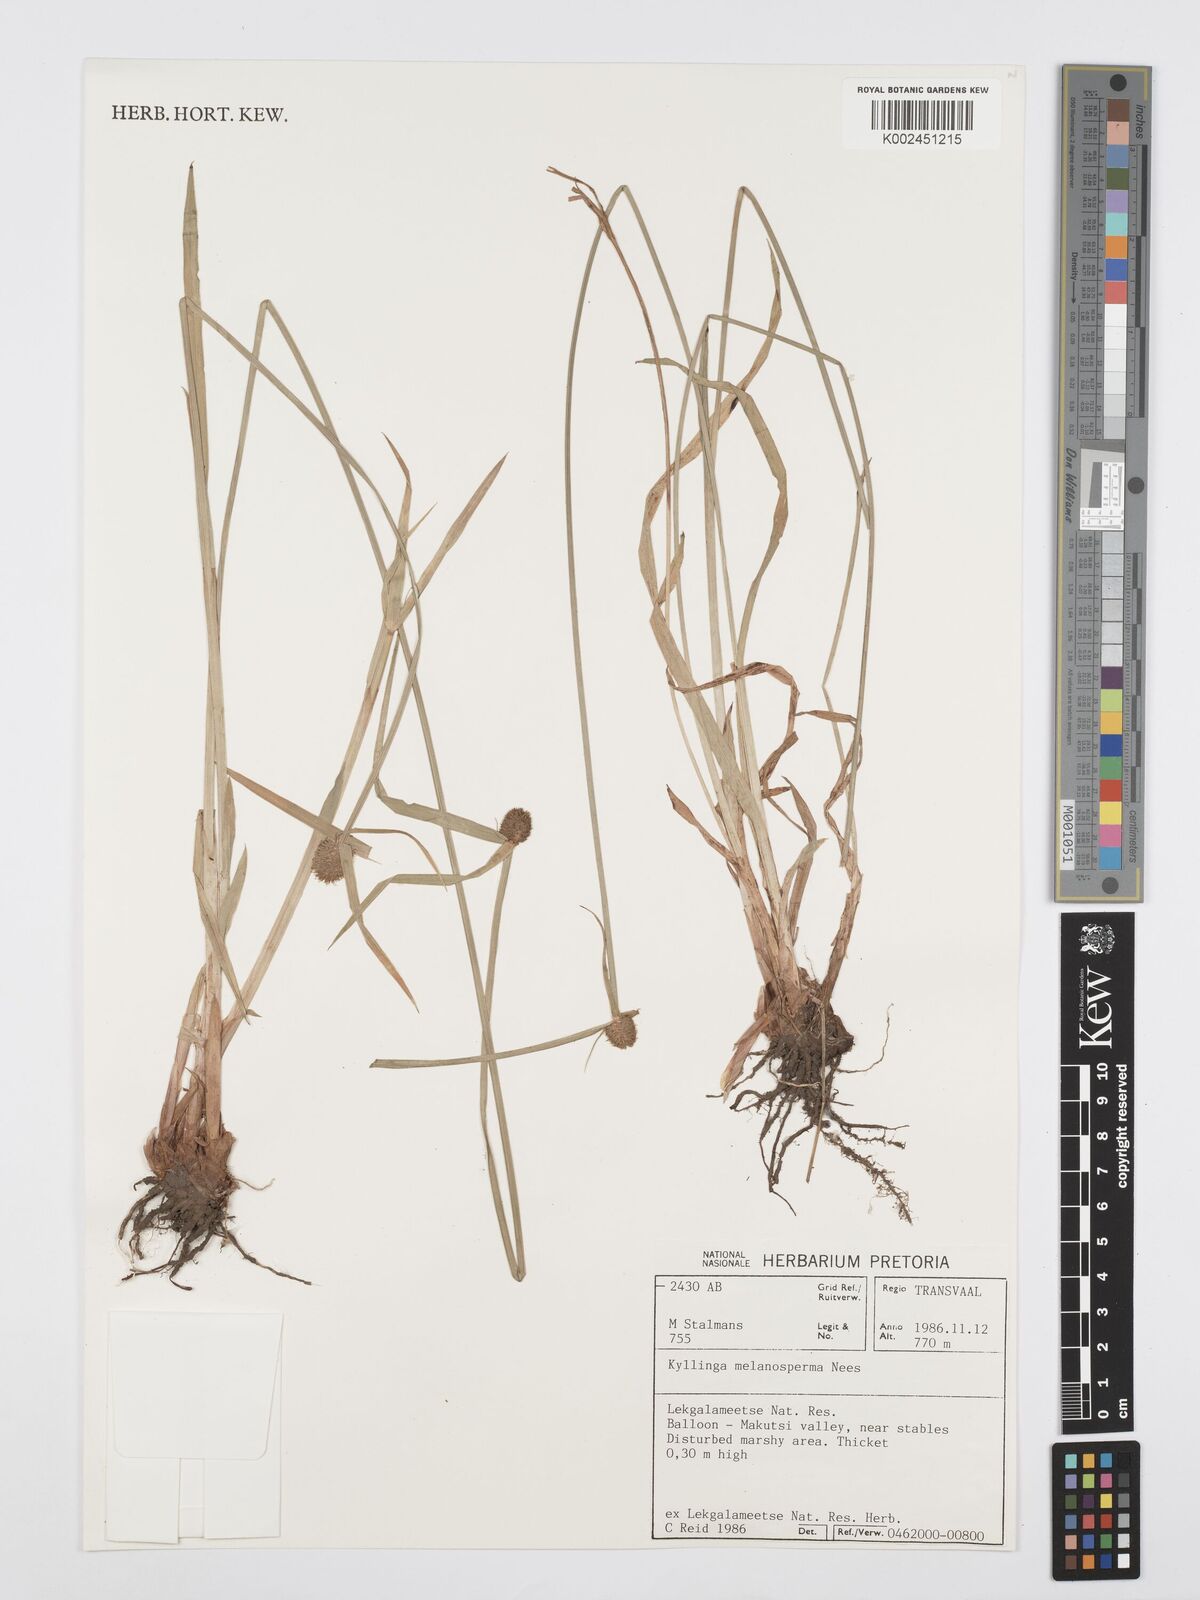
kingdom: Plantae
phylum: Tracheophyta
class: Liliopsida
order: Poales
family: Cyperaceae
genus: Cyperus
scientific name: Cyperus melanospermus
